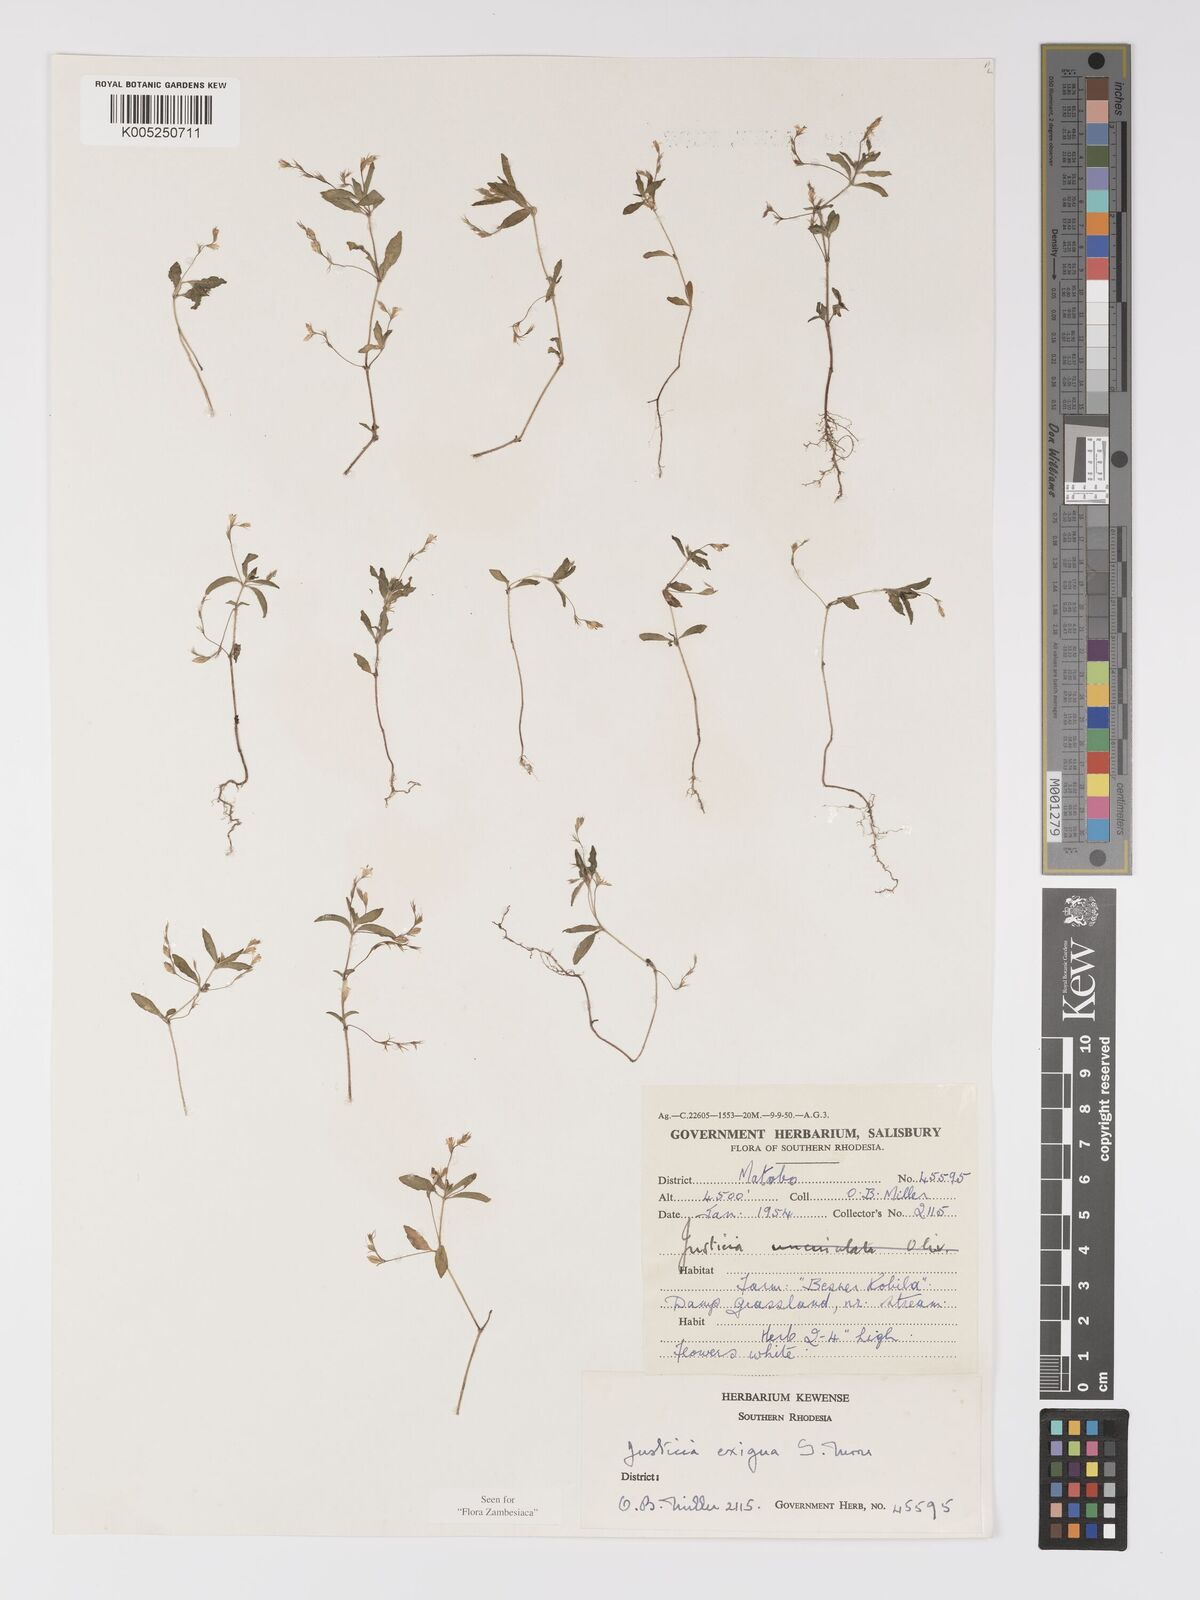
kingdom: Plantae
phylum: Tracheophyta
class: Magnoliopsida
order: Lamiales
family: Acanthaceae
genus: Justicia
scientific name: Justicia exigua
